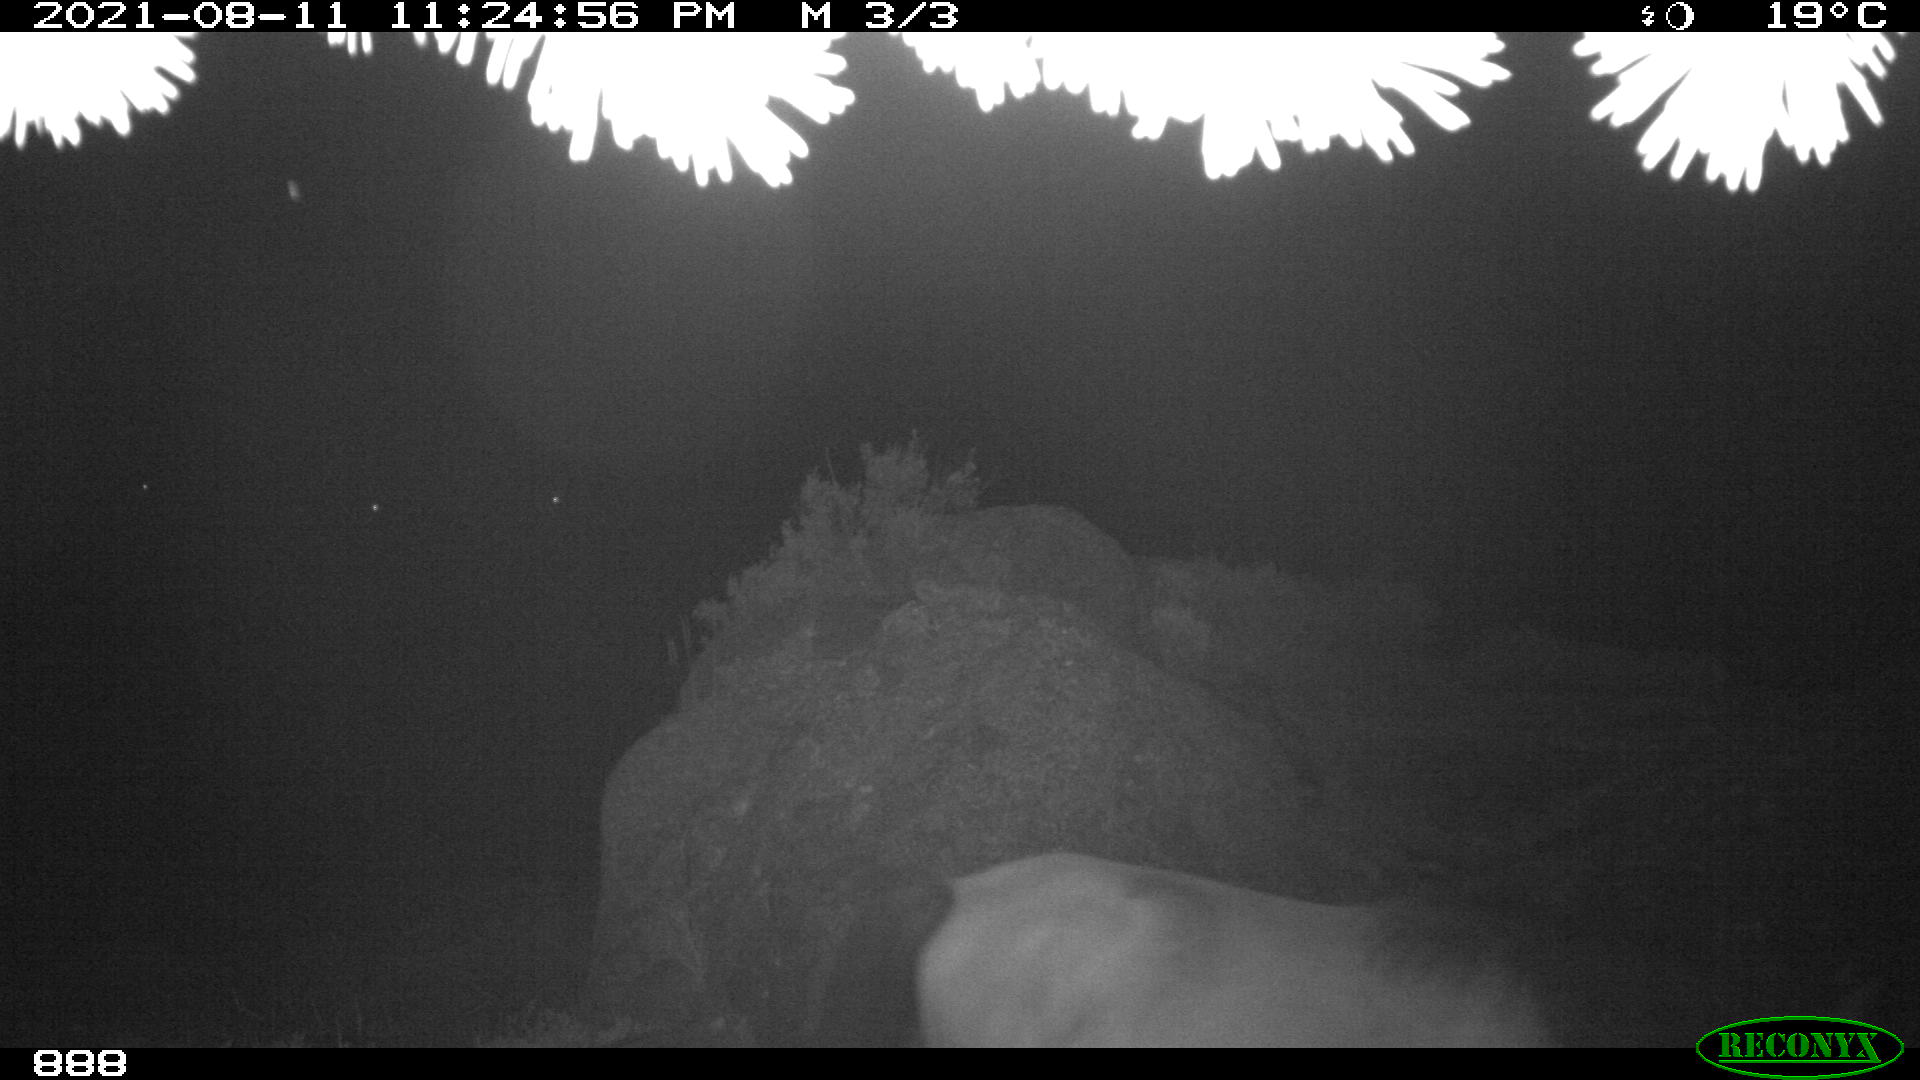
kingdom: Animalia
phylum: Chordata
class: Mammalia
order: Perissodactyla
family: Equidae
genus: Equus
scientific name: Equus caballus
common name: Horse
